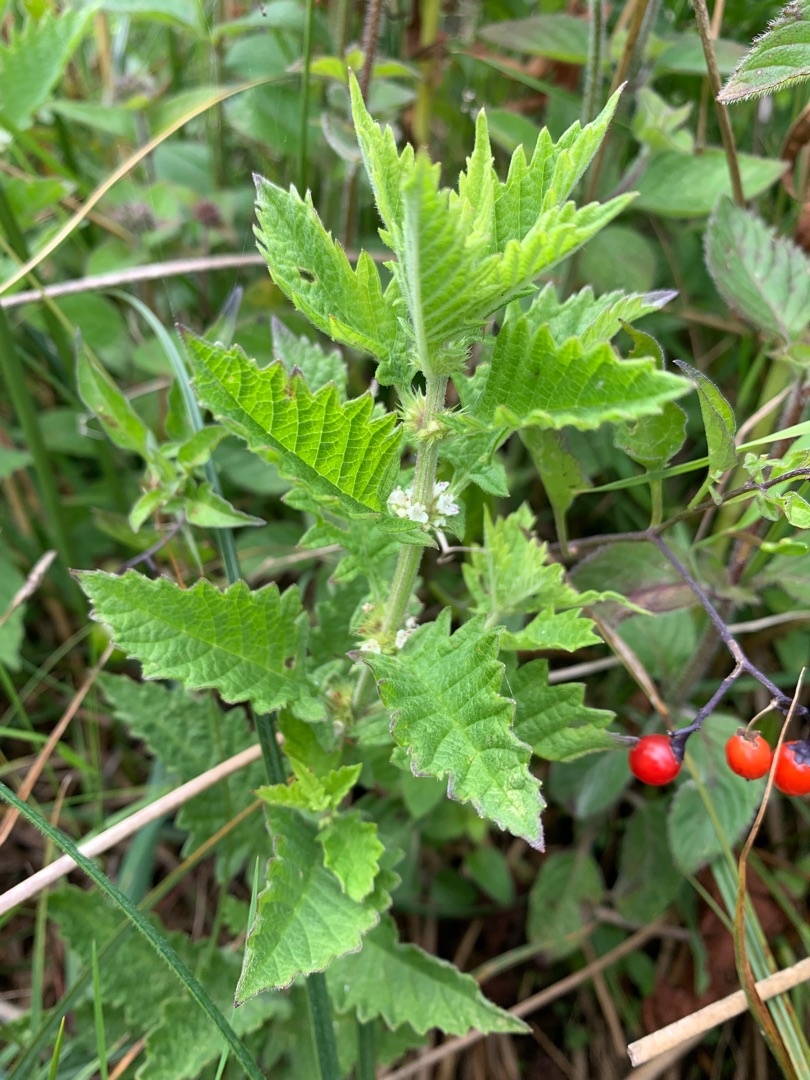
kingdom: Plantae
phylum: Tracheophyta
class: Magnoliopsida
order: Lamiales
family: Lamiaceae
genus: Lycopus
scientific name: Lycopus europaeus
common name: Sværtevæld
